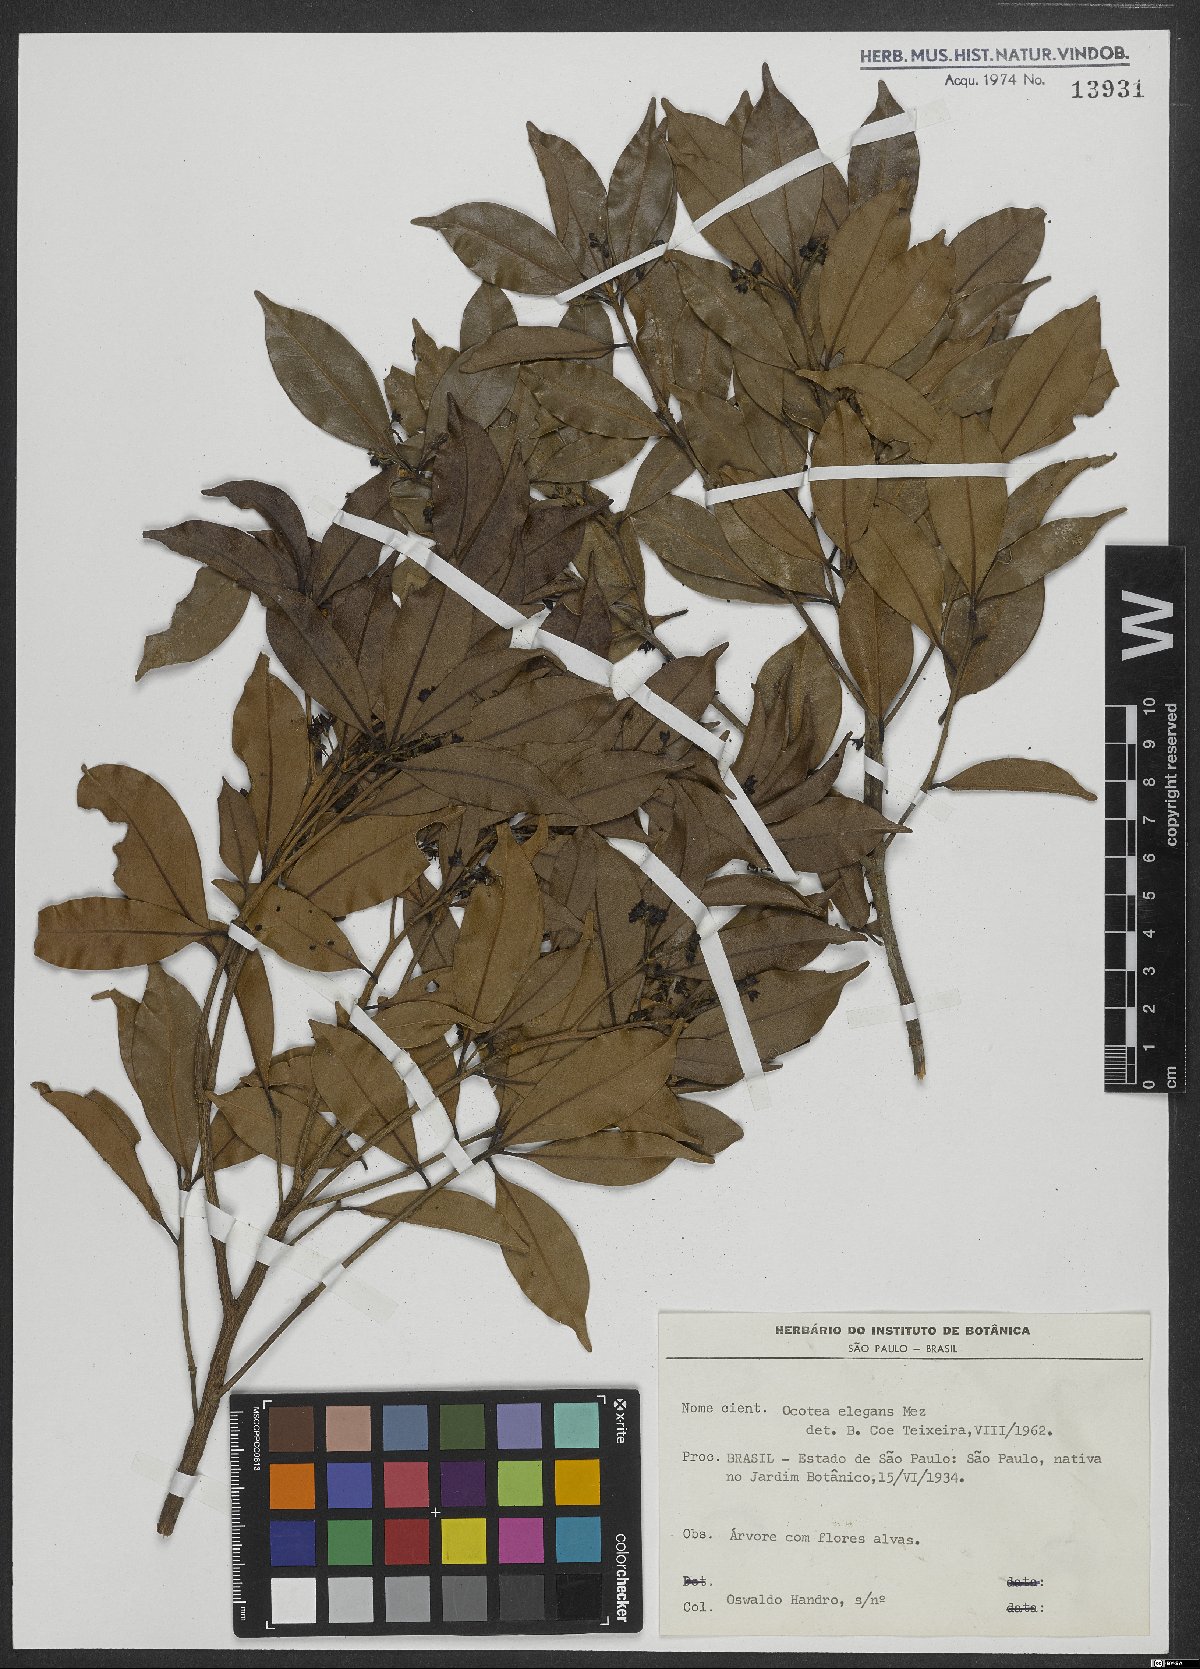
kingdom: Plantae
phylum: Tracheophyta
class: Magnoliopsida
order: Laurales
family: Lauraceae
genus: Ocotea
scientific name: Ocotea elegans
